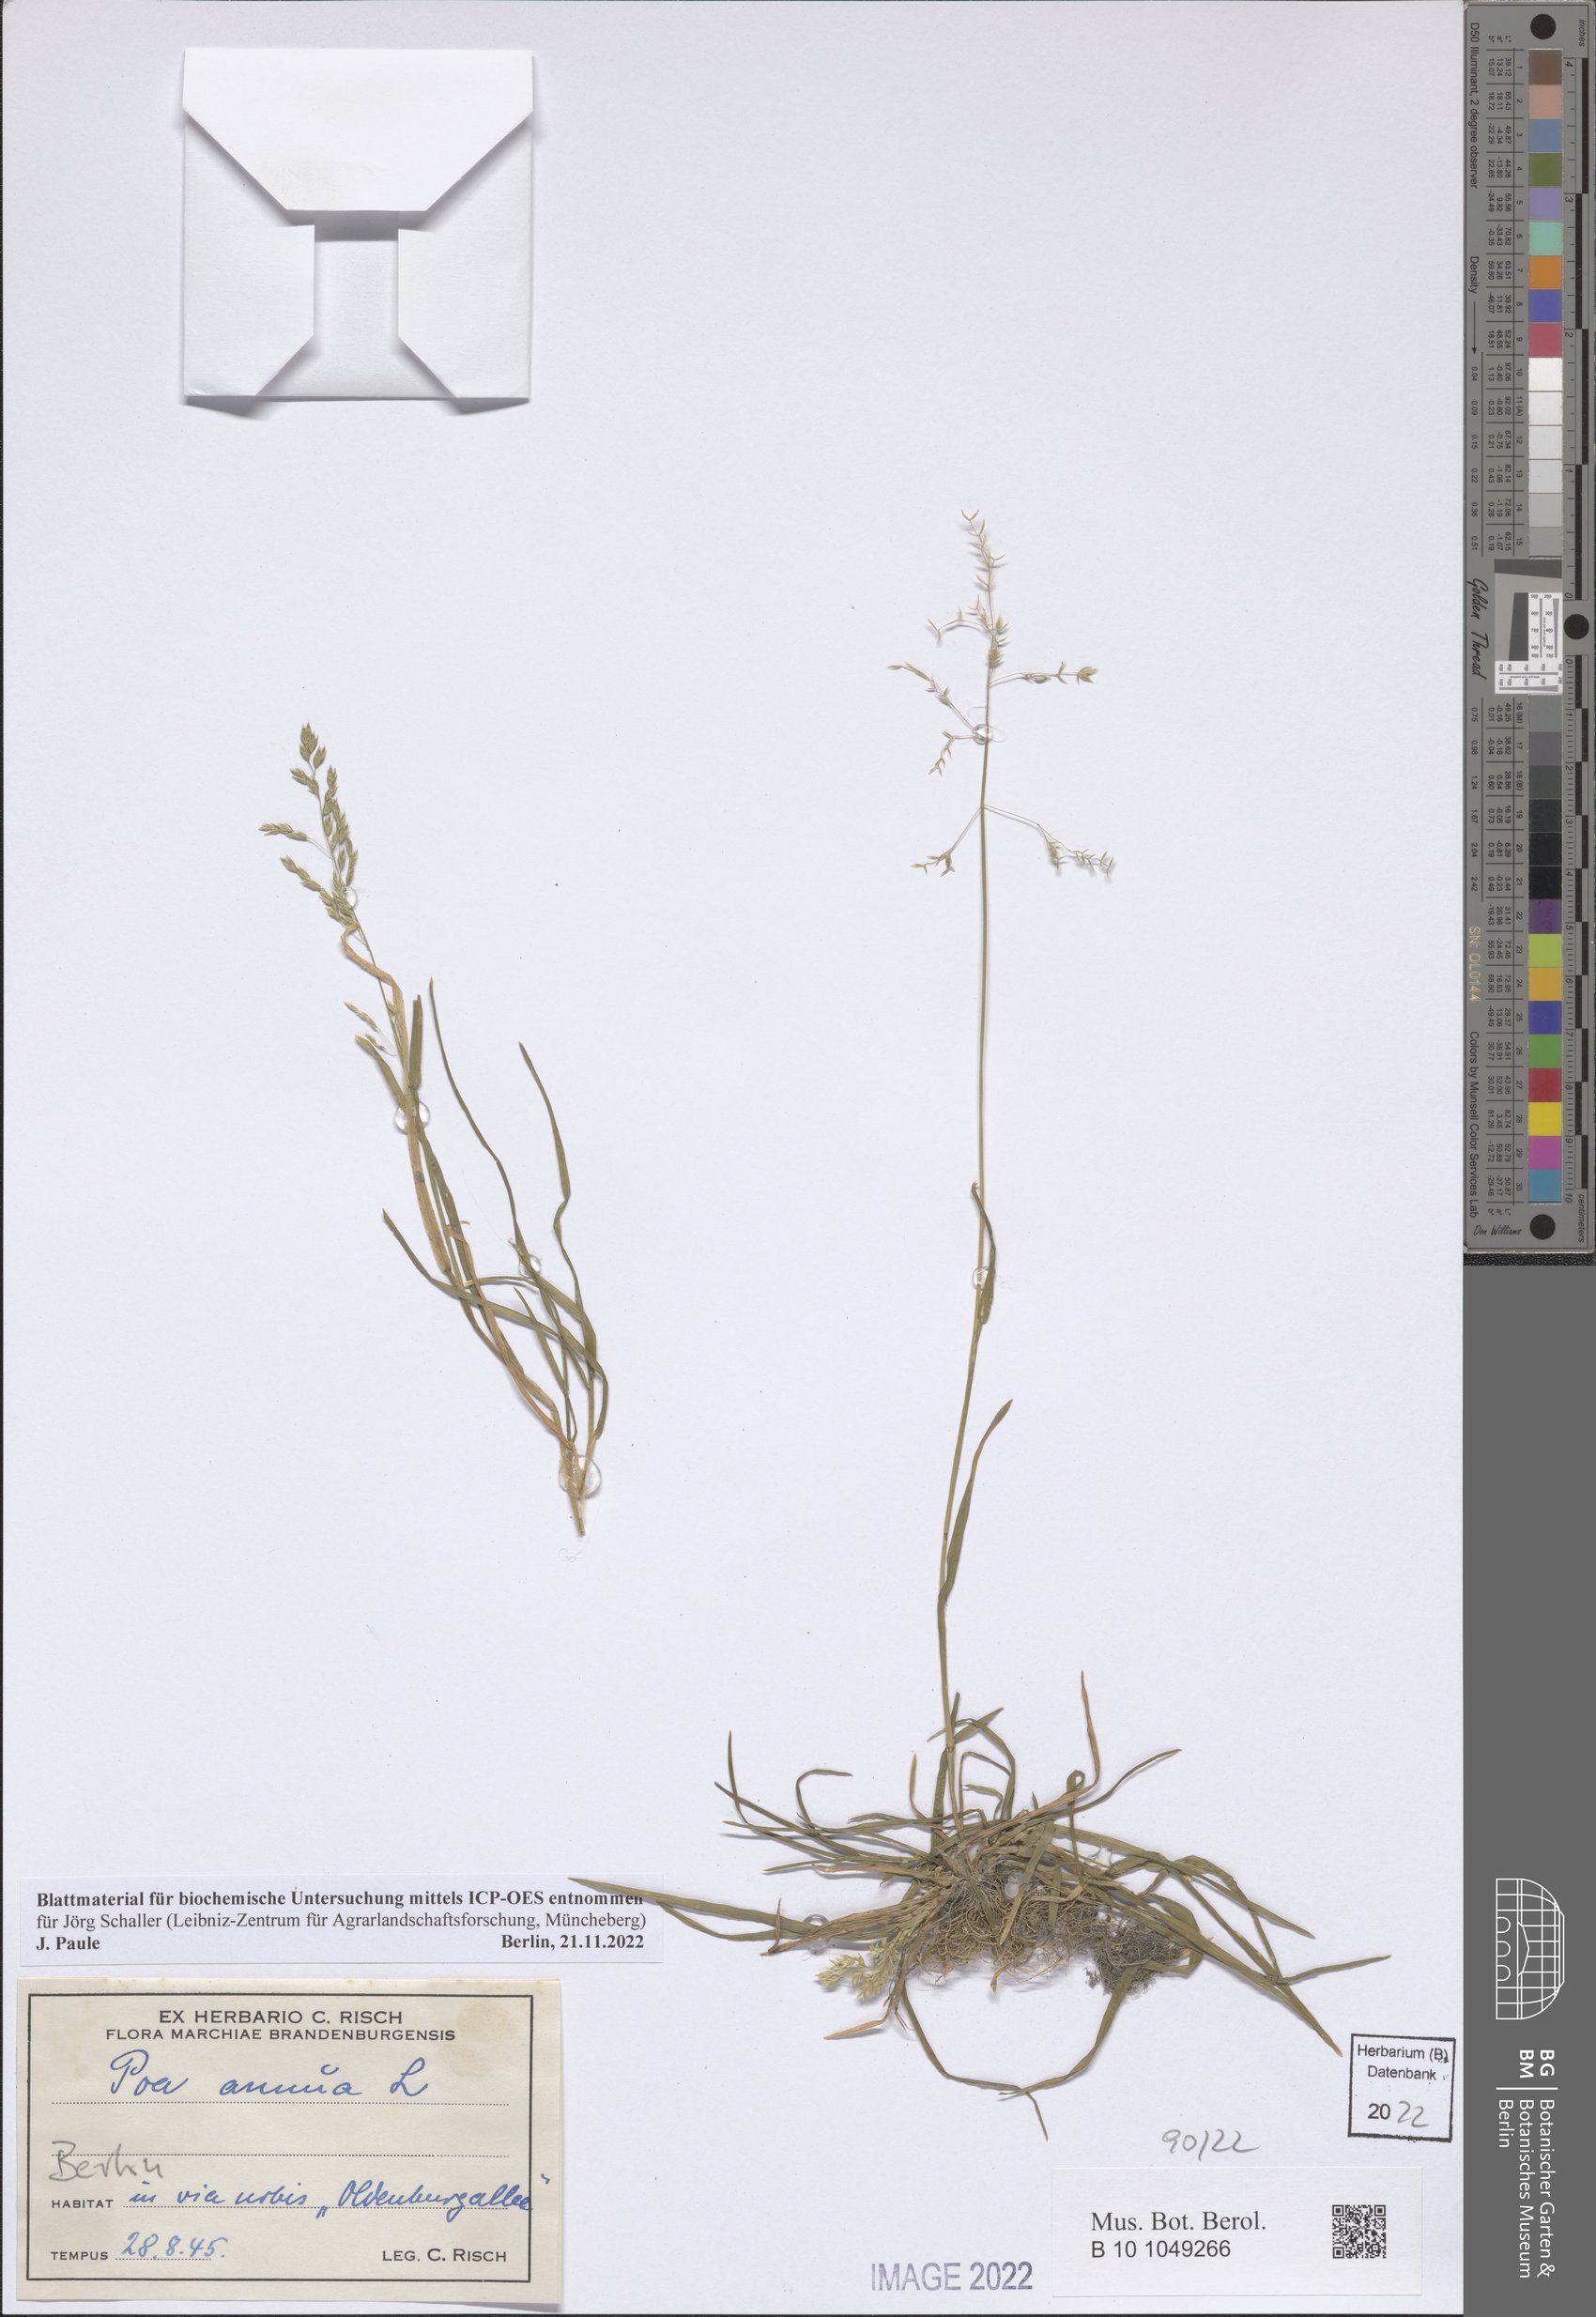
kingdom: Plantae
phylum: Tracheophyta
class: Liliopsida
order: Poales
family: Poaceae
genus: Poa
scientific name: Poa annua
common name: Annual bluegrass
